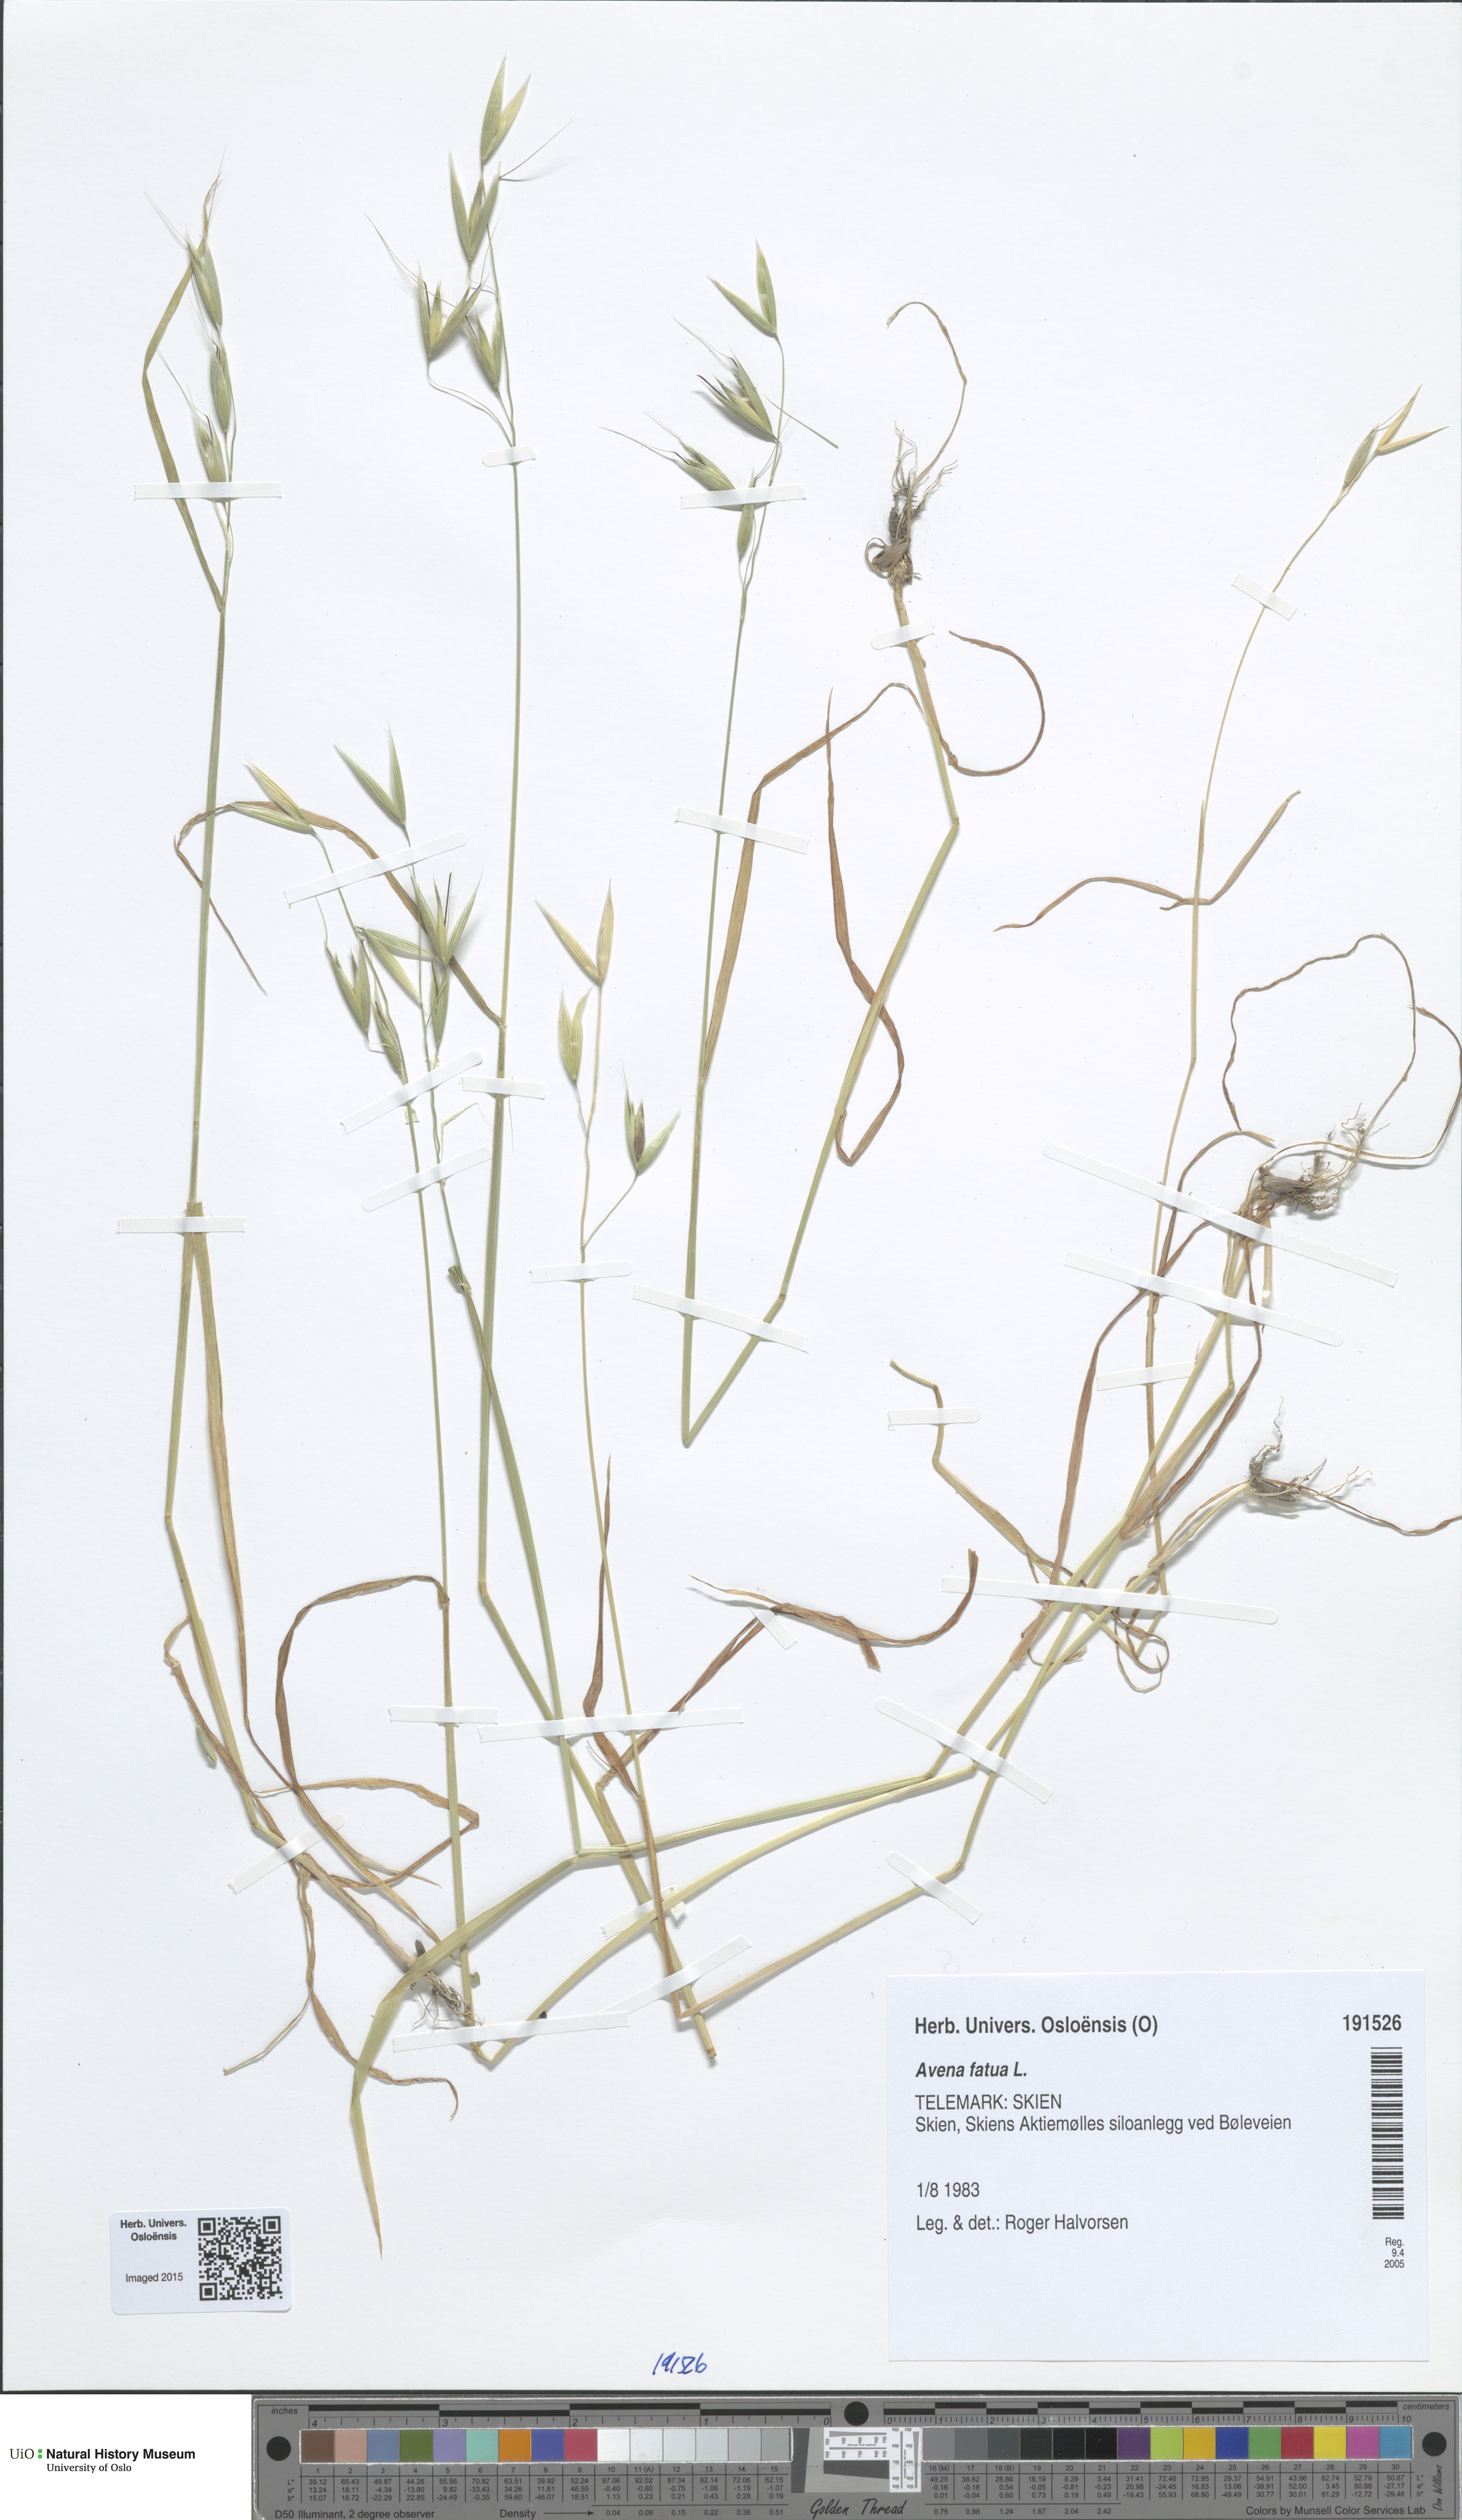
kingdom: Plantae
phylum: Tracheophyta
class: Liliopsida
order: Poales
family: Poaceae
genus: Avena
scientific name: Avena fatua
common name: Wild oat
